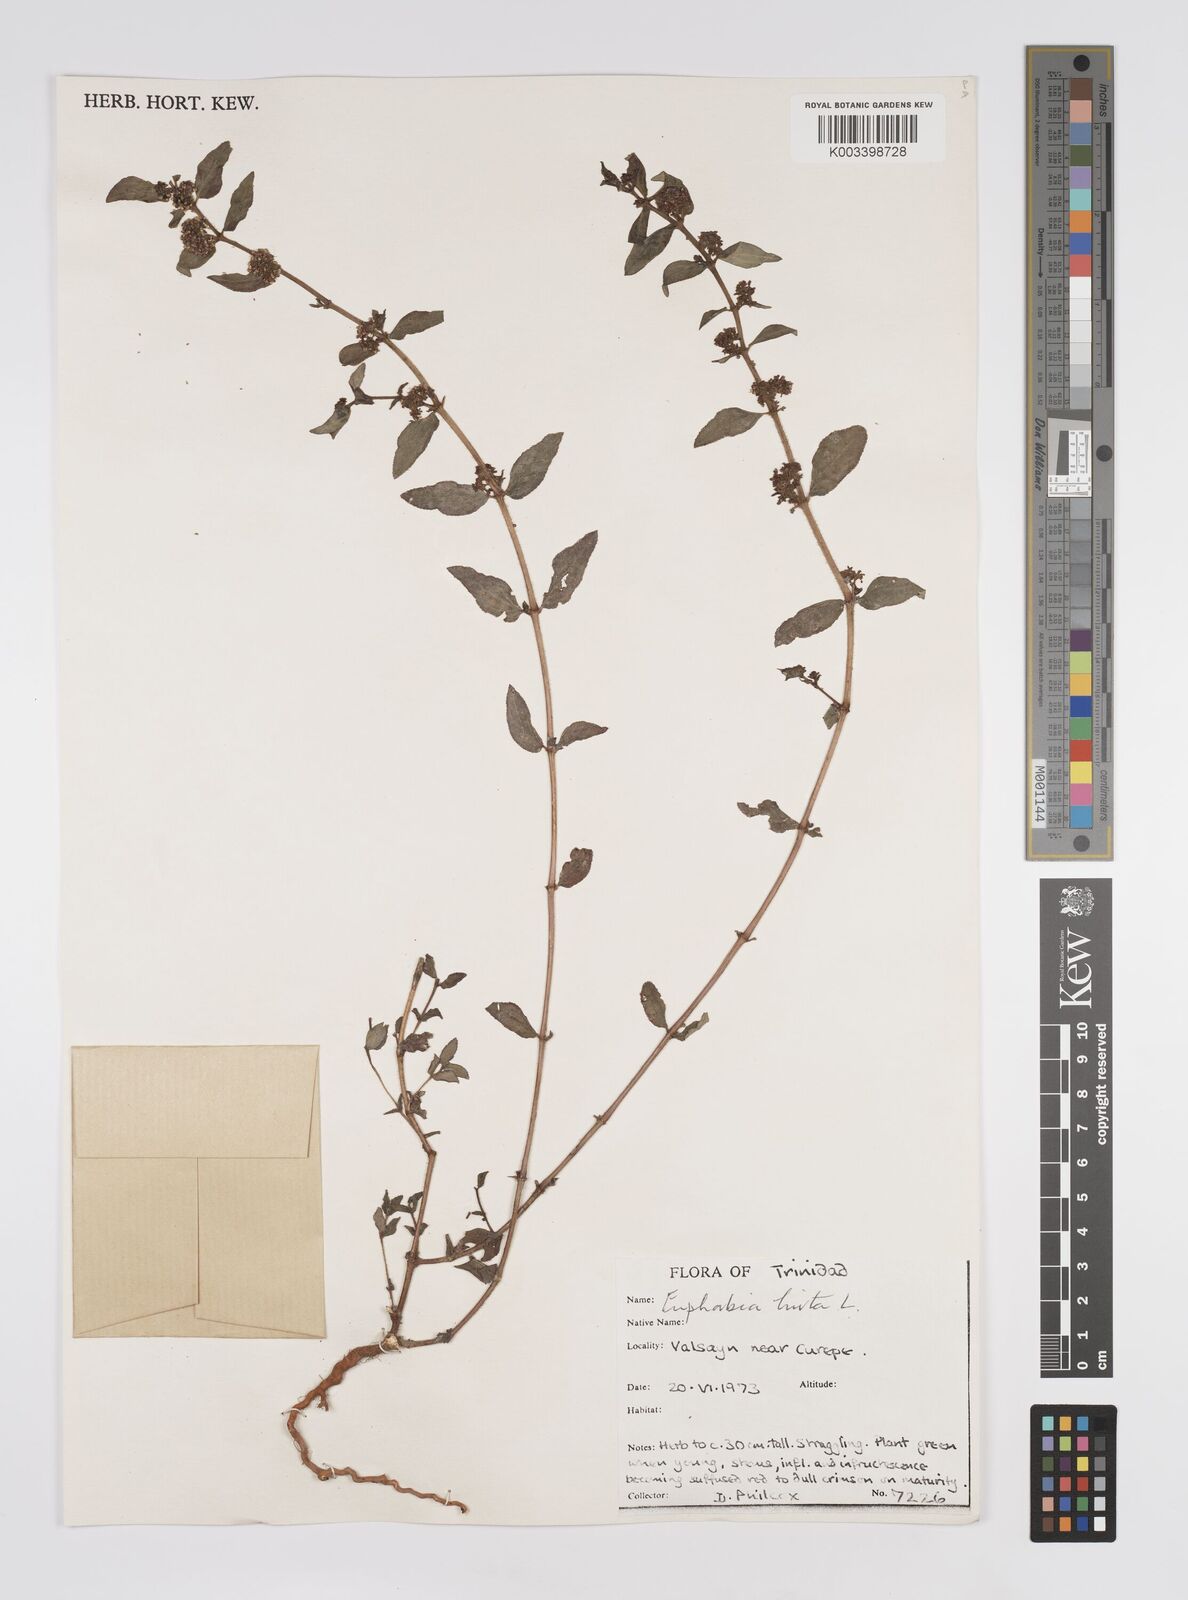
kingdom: Plantae
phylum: Tracheophyta
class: Magnoliopsida
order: Malpighiales
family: Euphorbiaceae
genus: Euphorbia
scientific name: Euphorbia hirta
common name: Pillpod sandmat
